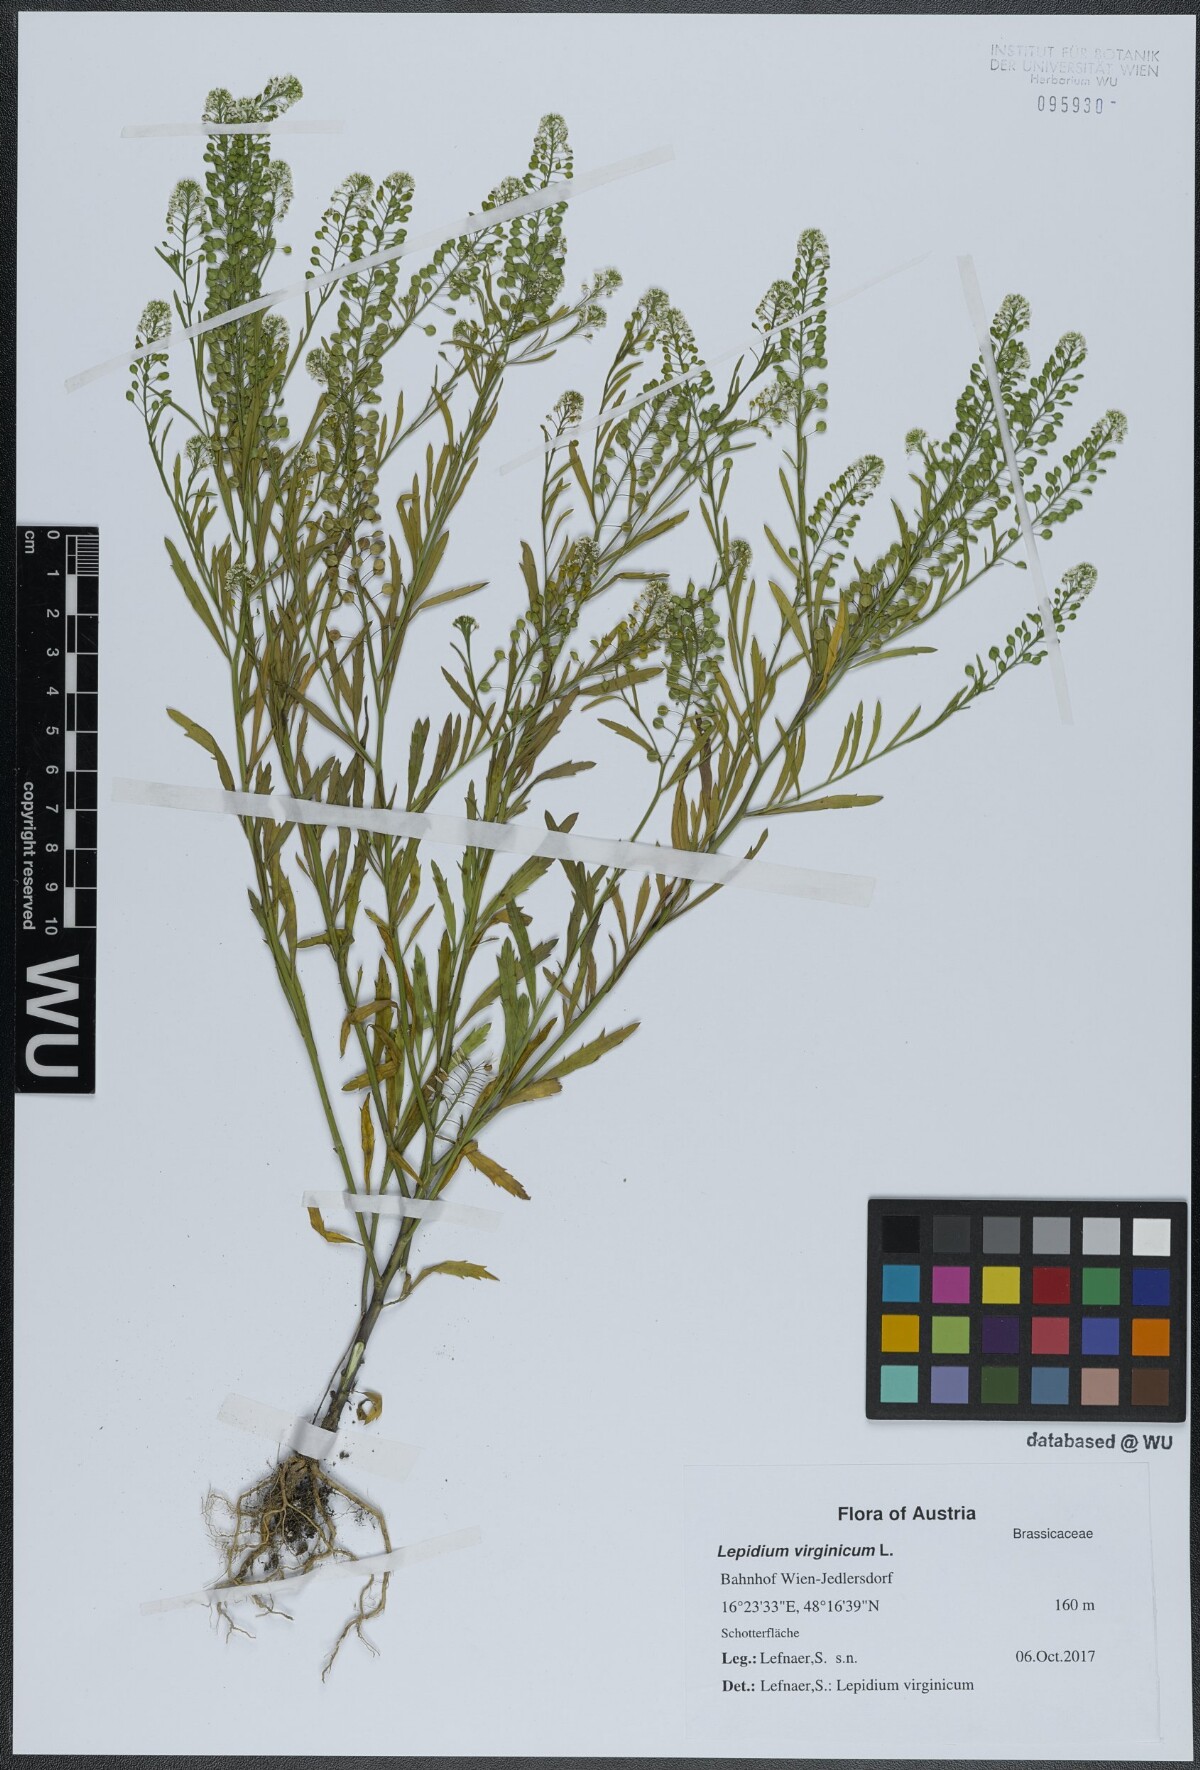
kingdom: Plantae
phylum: Tracheophyta
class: Magnoliopsida
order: Brassicales
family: Brassicaceae
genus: Lepidium
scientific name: Lepidium virginicum
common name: Least pepperwort
